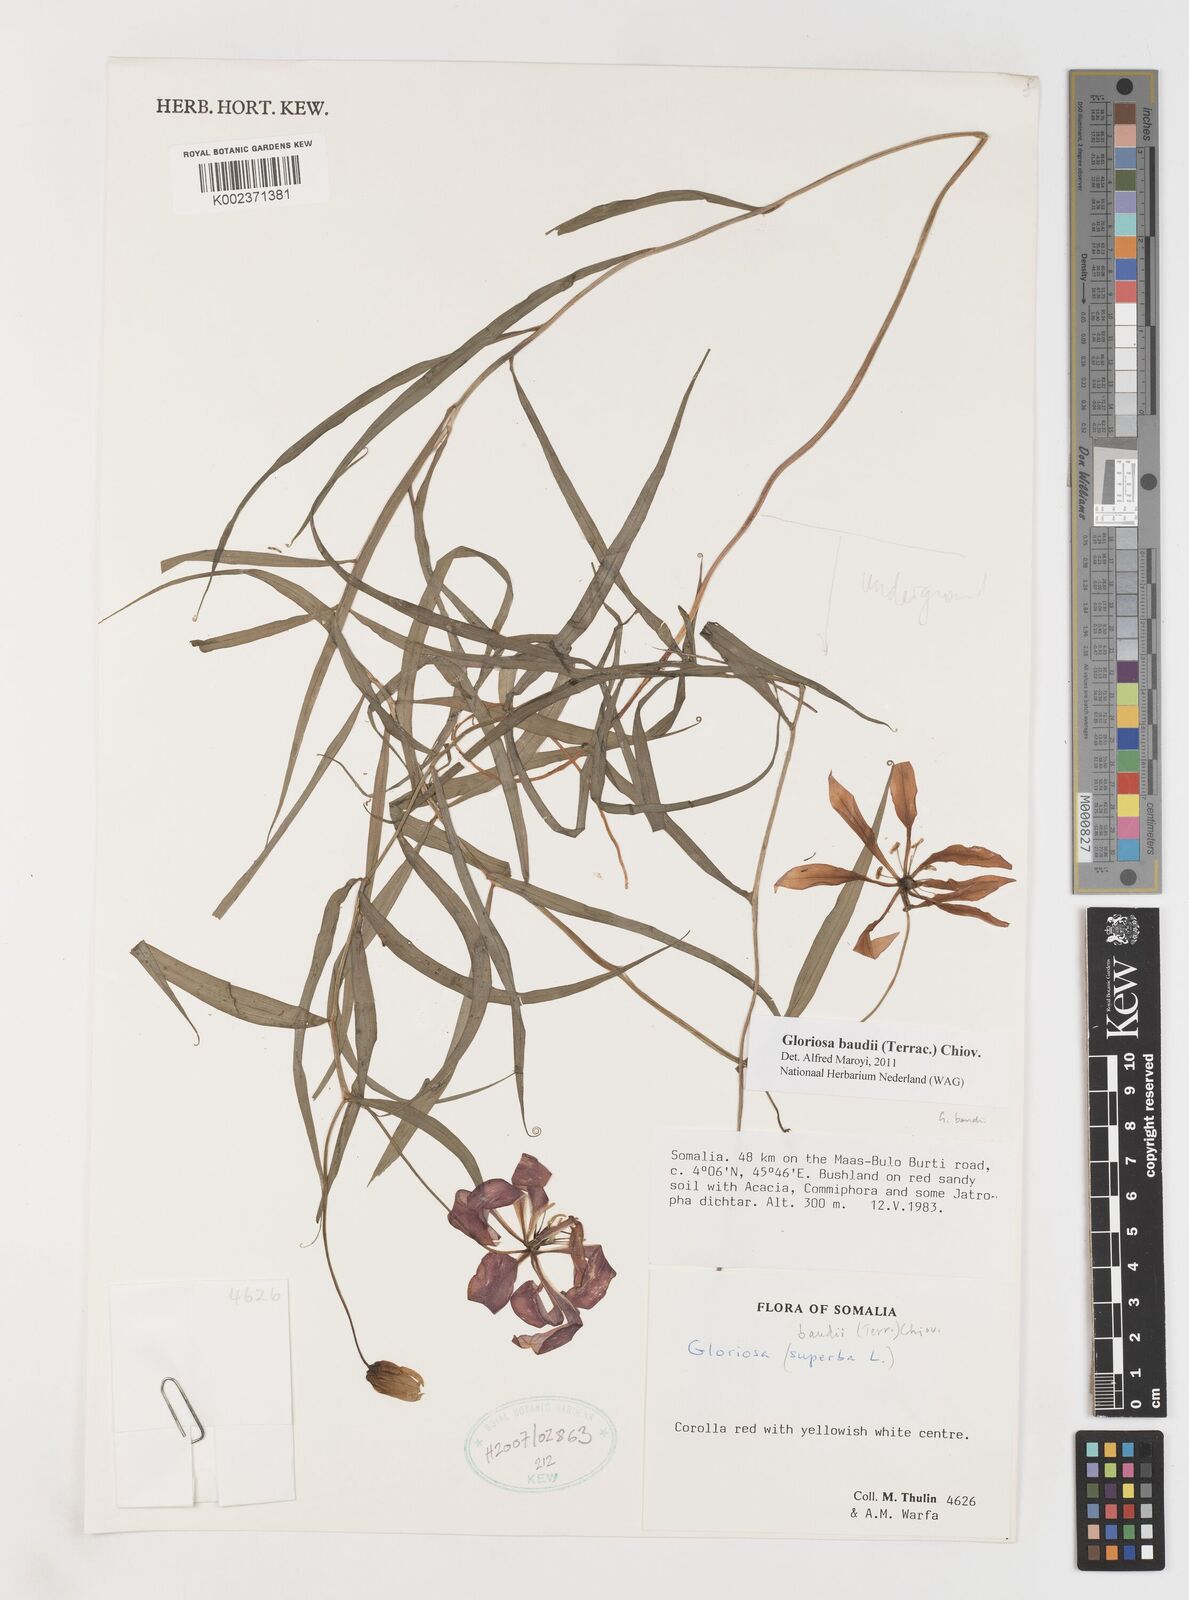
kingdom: Plantae
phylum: Tracheophyta
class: Liliopsida
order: Liliales
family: Colchicaceae
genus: Gloriosa
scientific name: Gloriosa baudii
